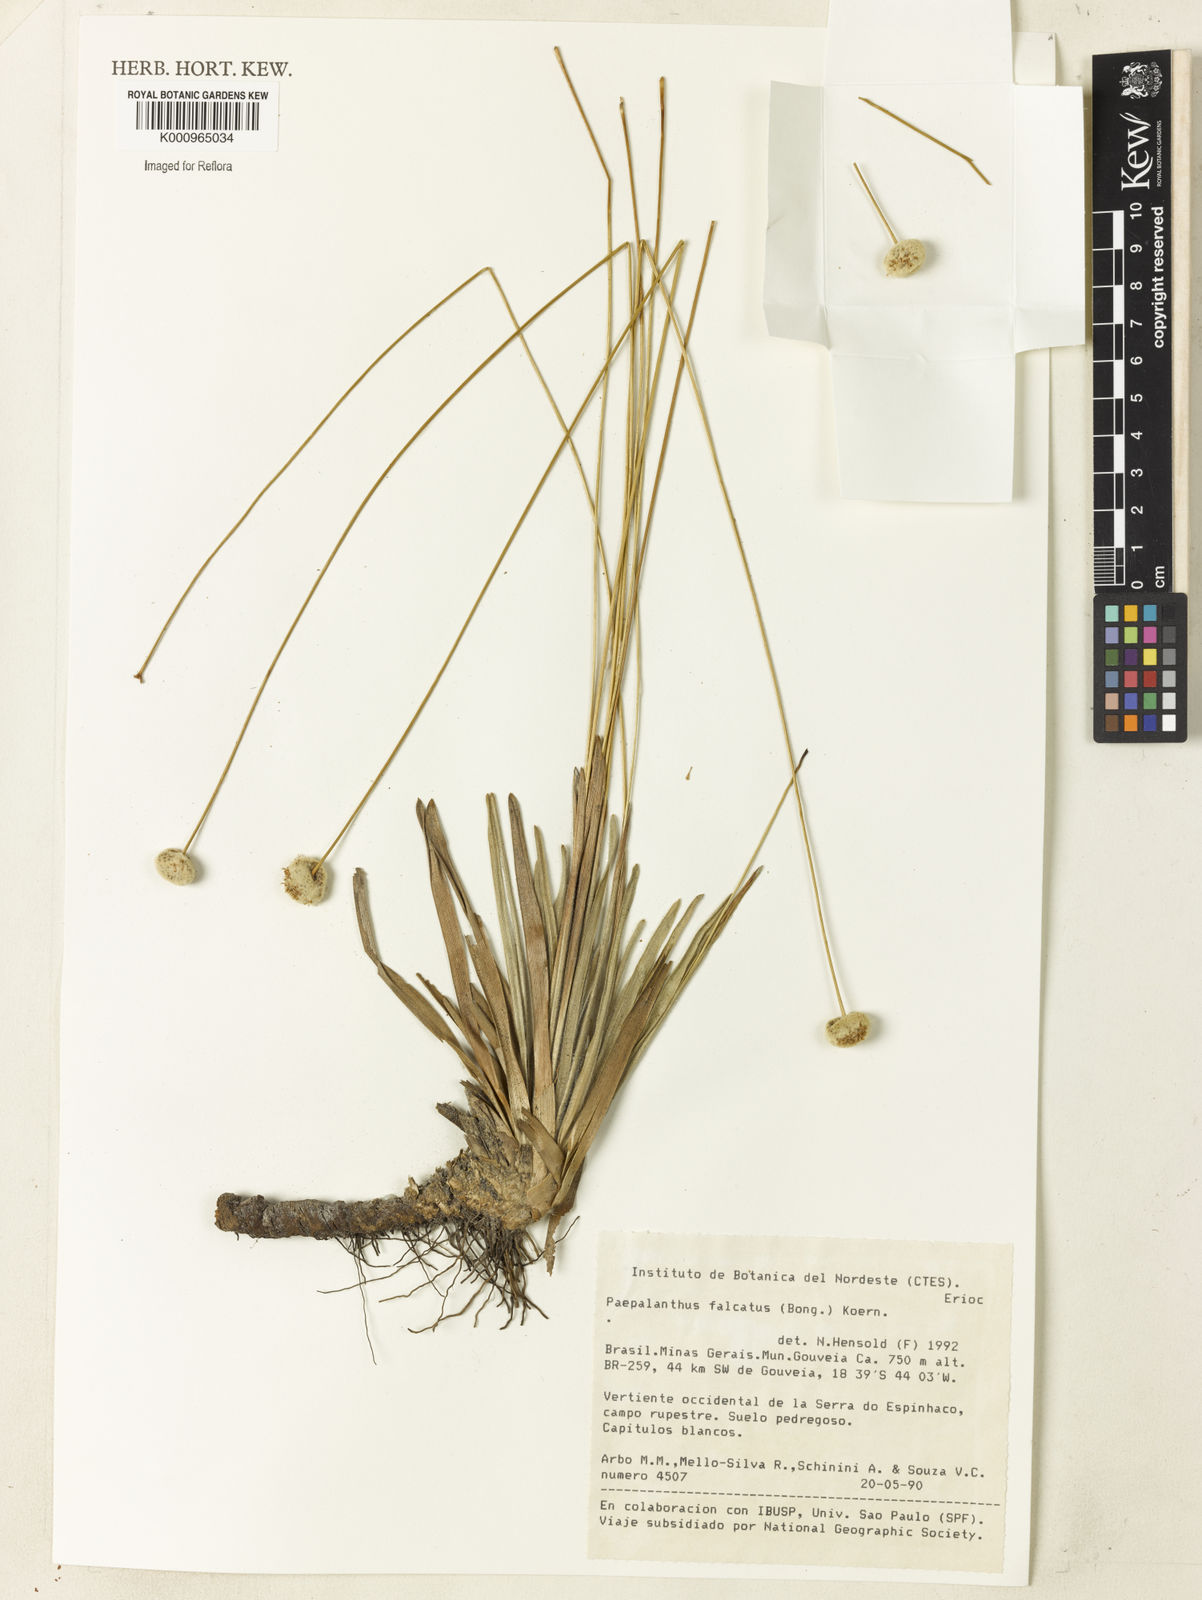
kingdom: Plantae
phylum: Tracheophyta
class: Liliopsida
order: Poales
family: Eriocaulaceae
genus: Paepalanthus
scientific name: Paepalanthus
